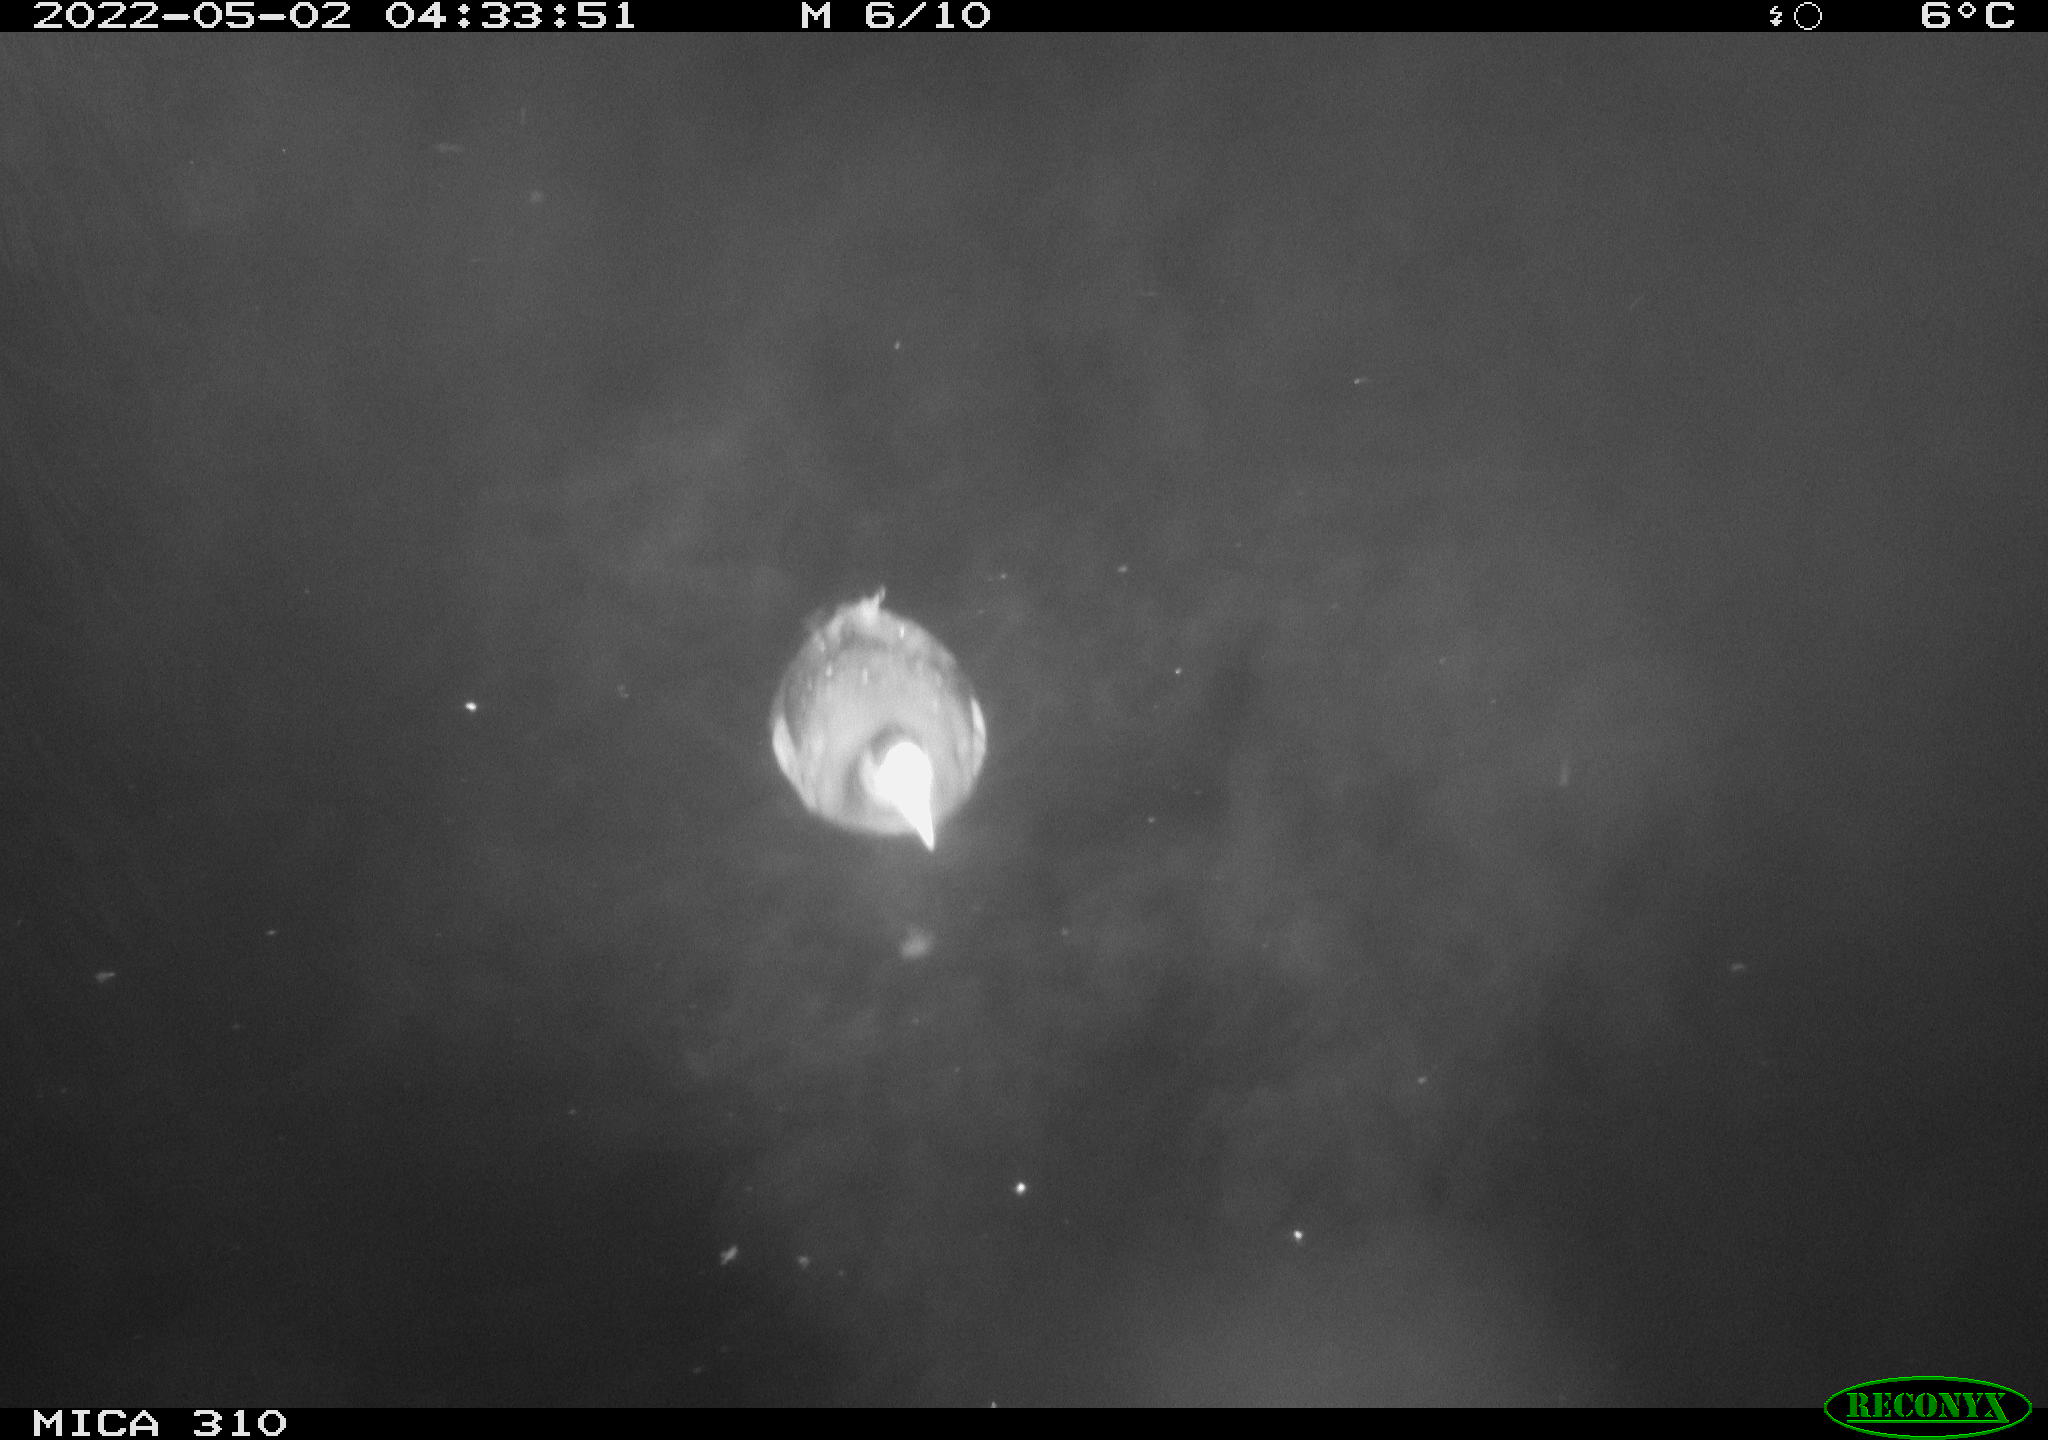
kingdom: Animalia
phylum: Chordata
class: Aves
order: Anseriformes
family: Anatidae
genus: Anas
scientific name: Anas platyrhynchos
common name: Mallard
